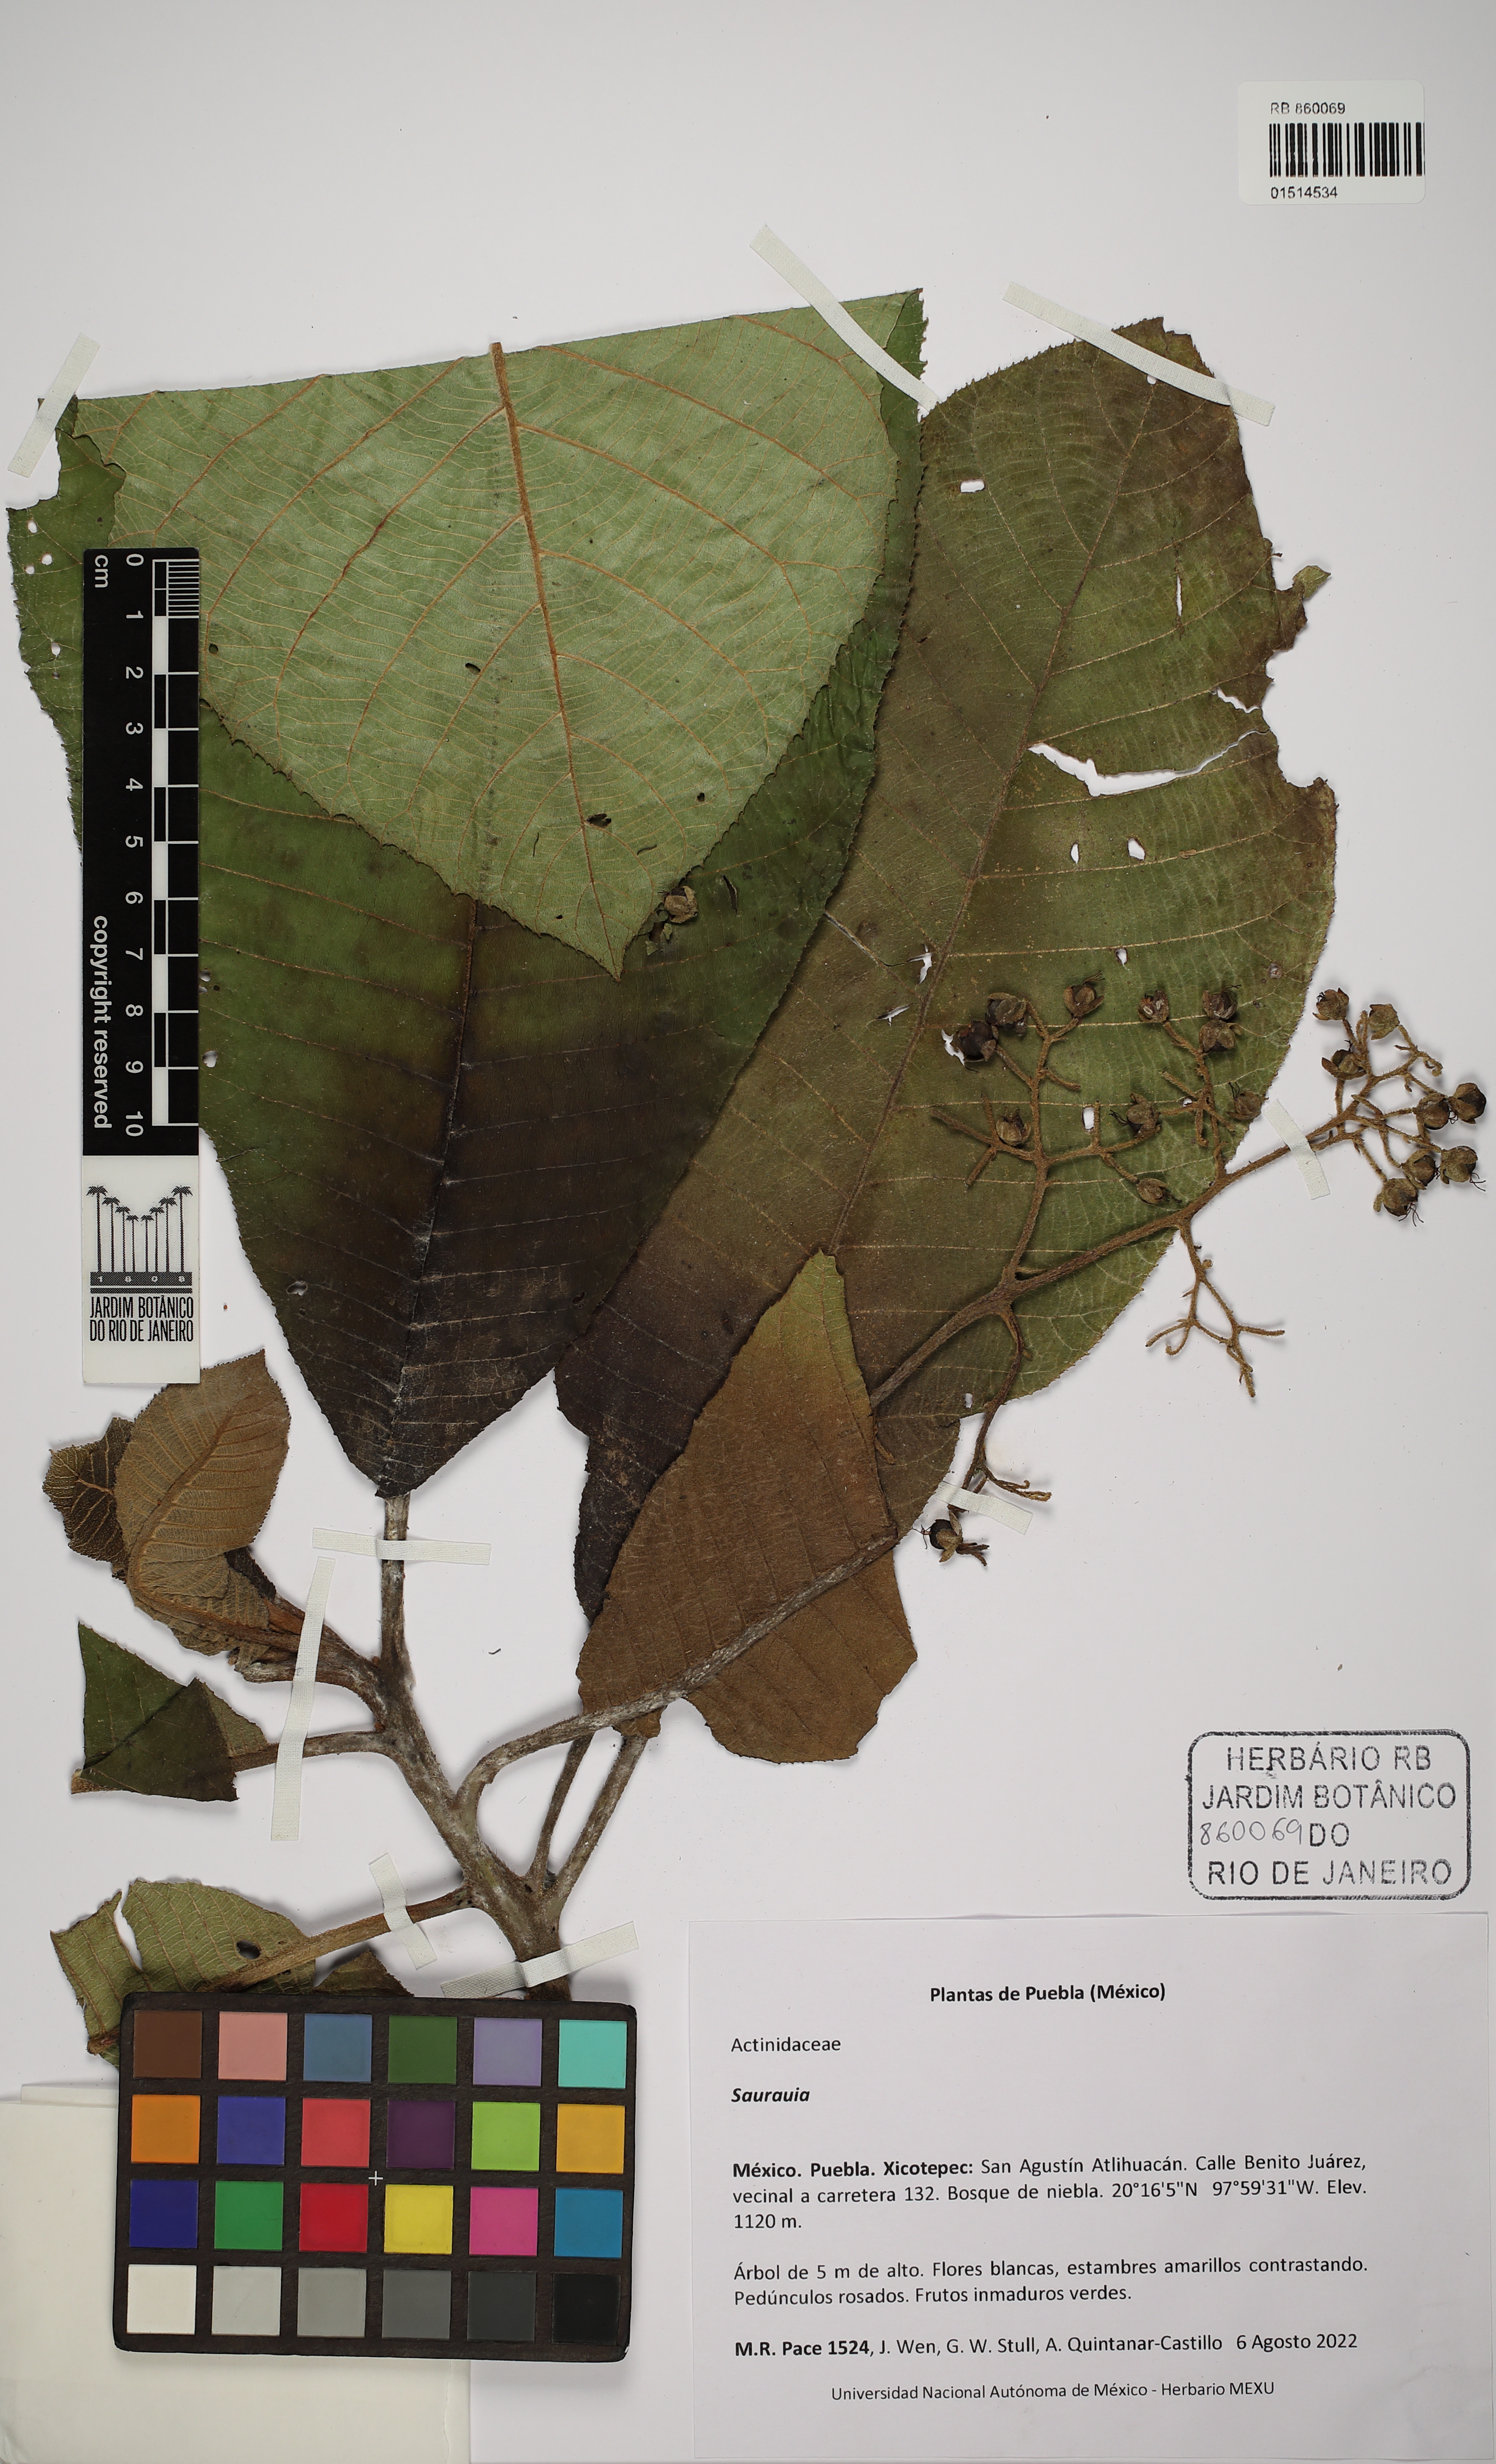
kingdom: Plantae
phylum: Tracheophyta
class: Magnoliopsida
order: Ericales
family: Actinidiaceae
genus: Saurauia
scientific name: Saurauia
